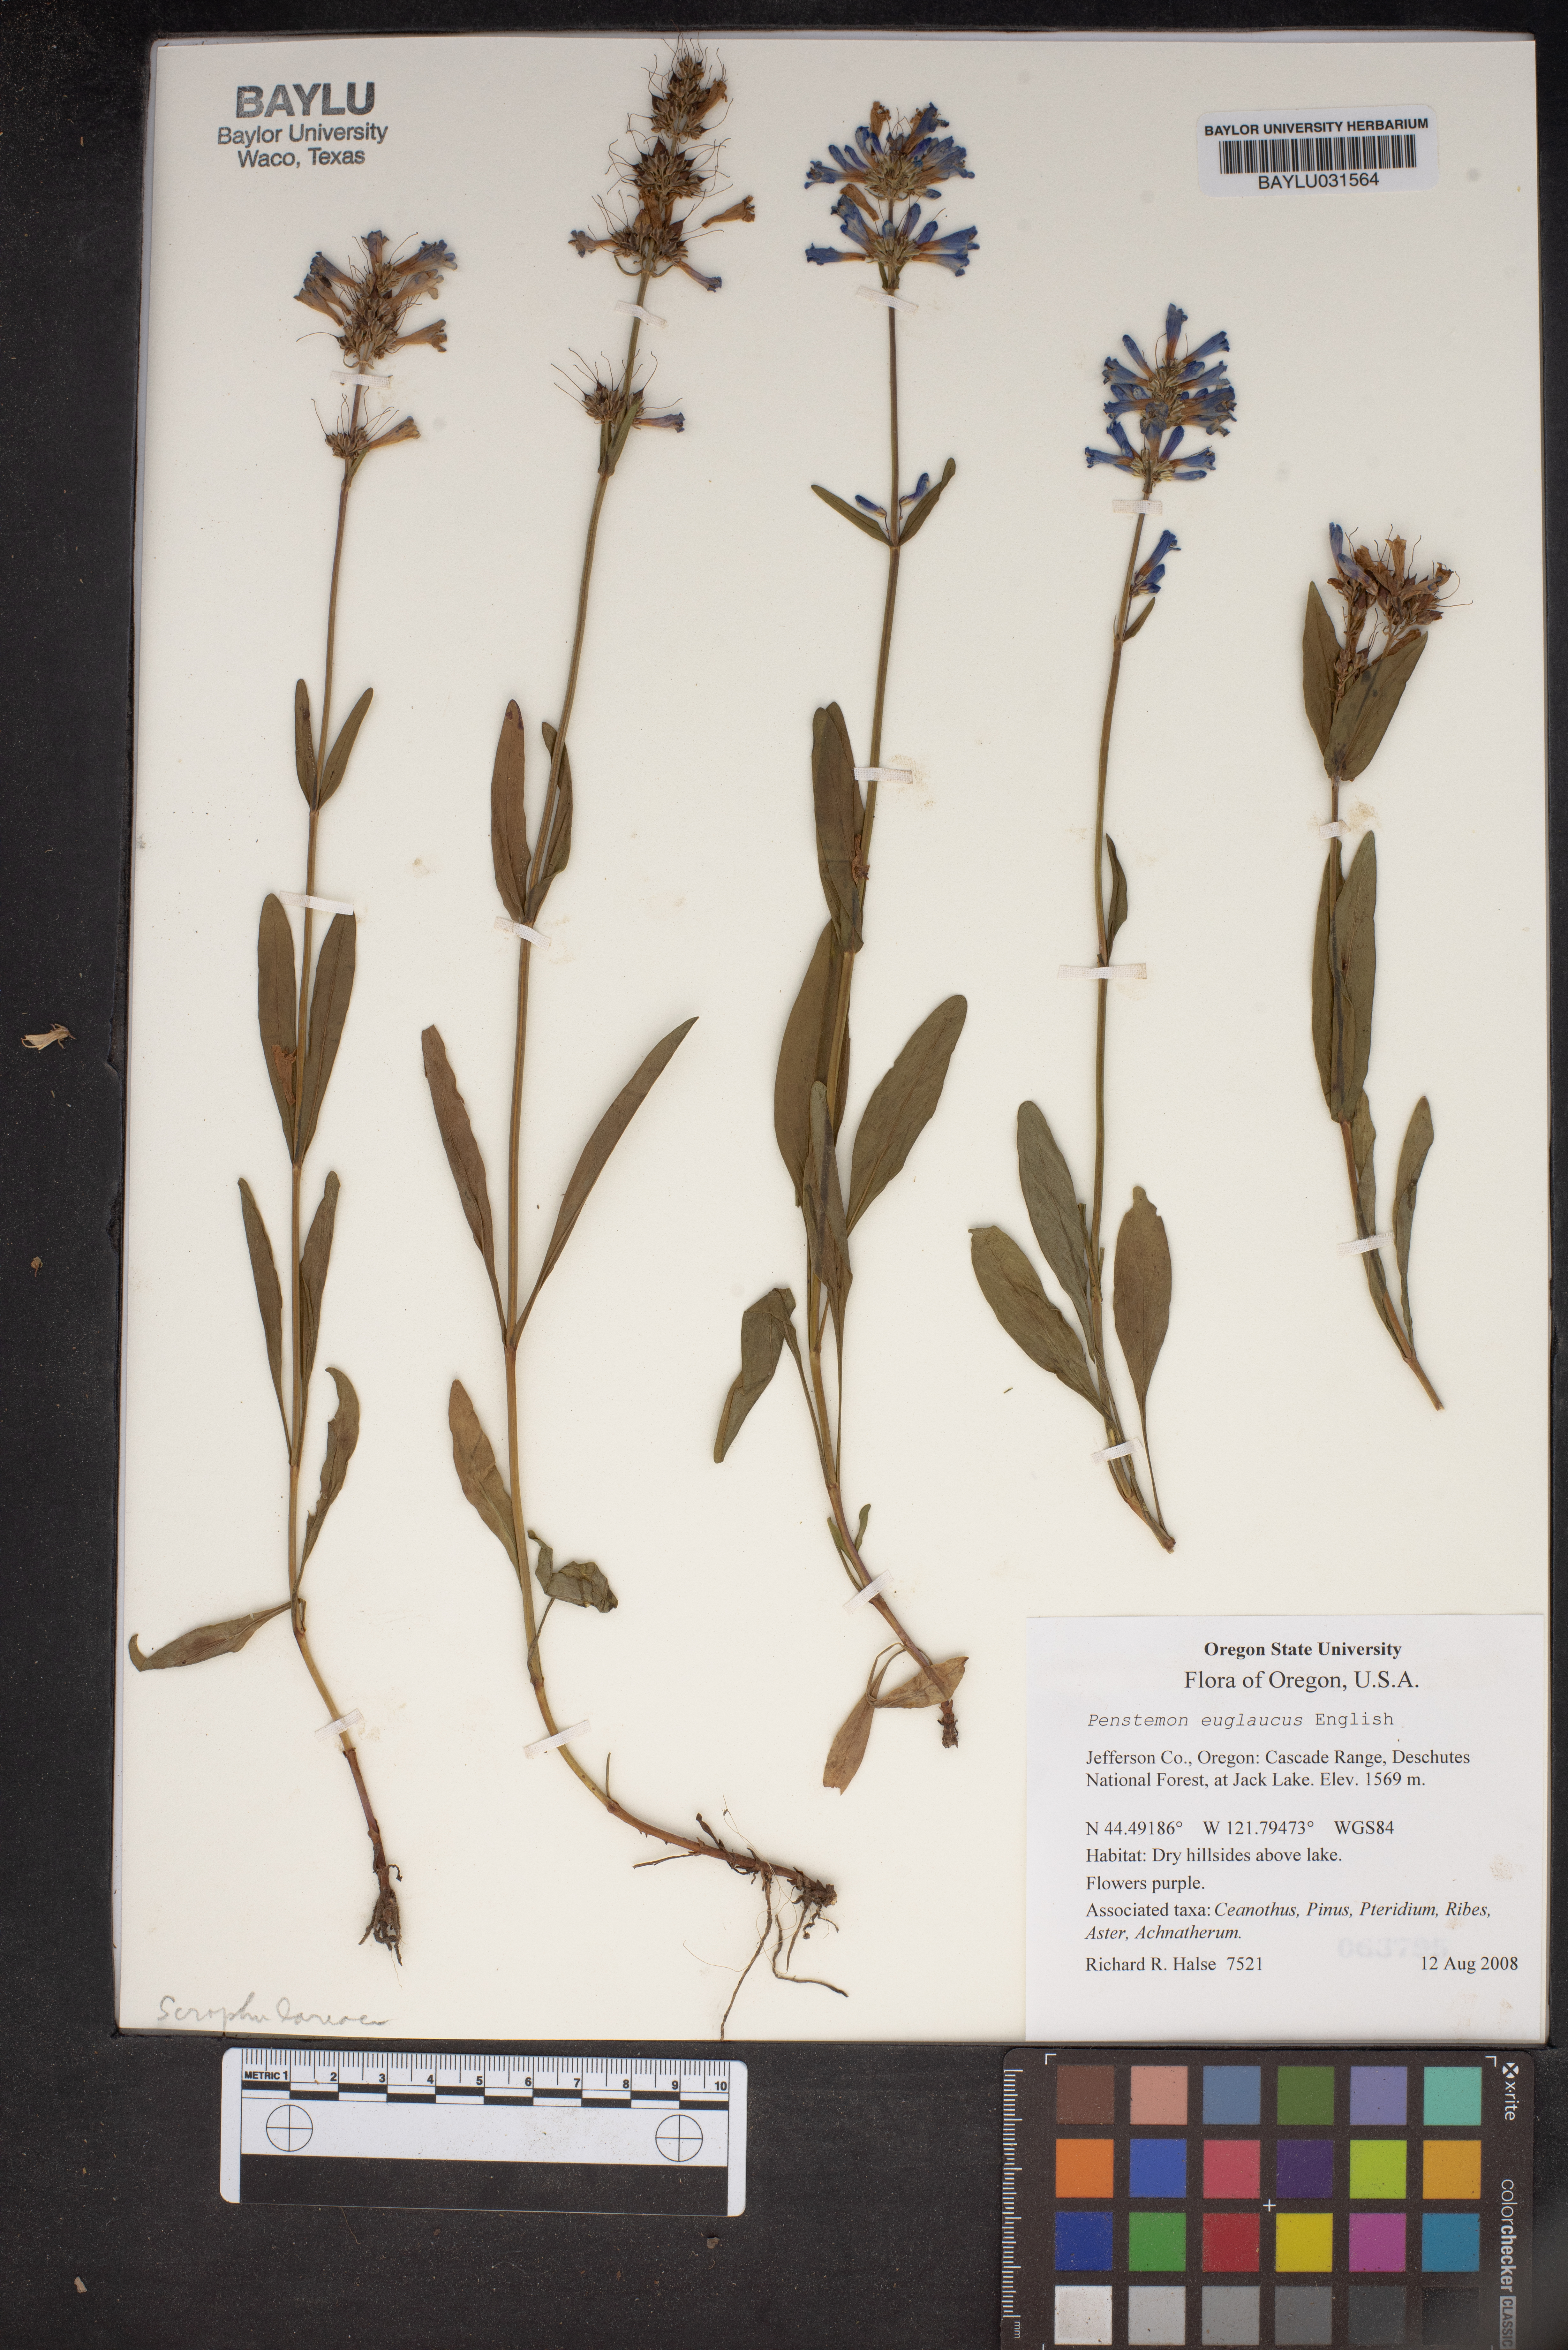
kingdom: Plantae
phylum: Tracheophyta
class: Magnoliopsida
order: Lamiales
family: Plantaginaceae
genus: Penstemon
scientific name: Penstemon euglaucus
